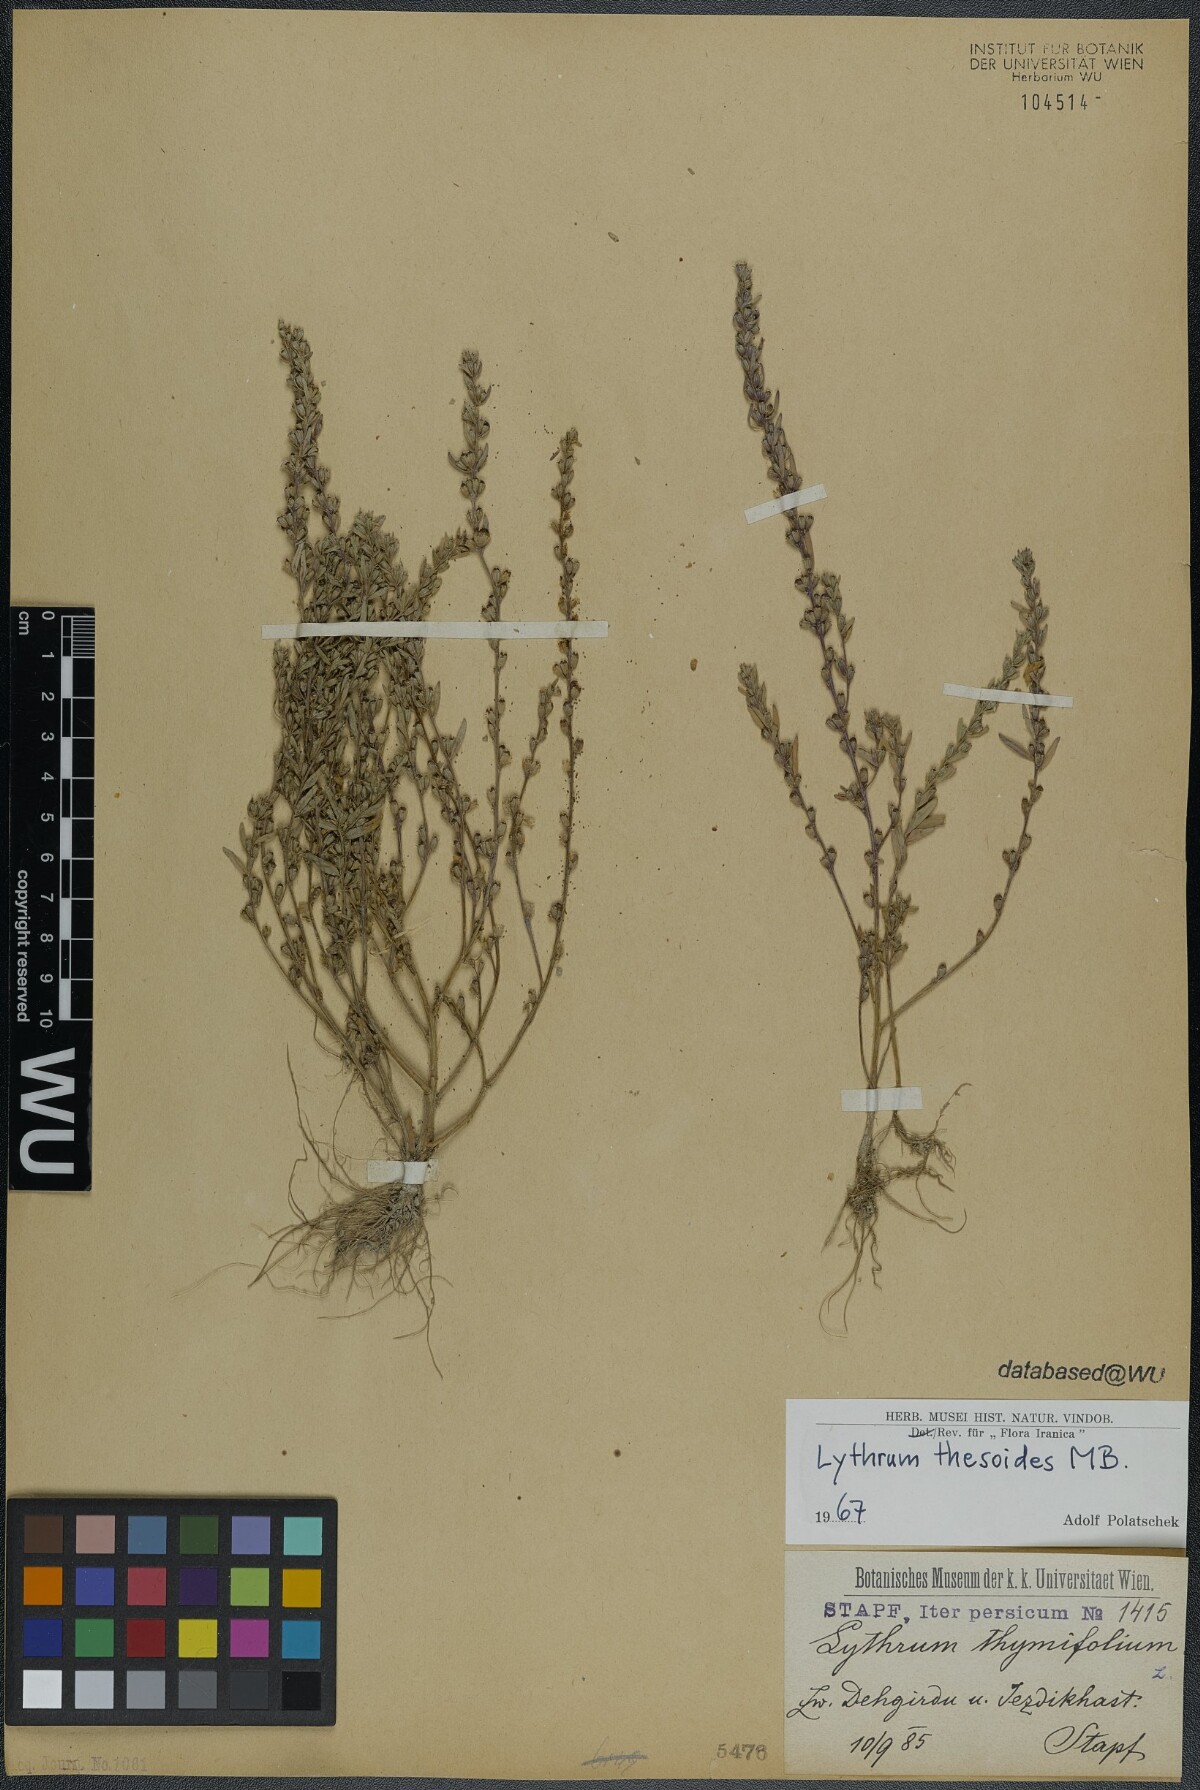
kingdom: Plantae
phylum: Tracheophyta
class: Magnoliopsida
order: Myrtales
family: Lythraceae
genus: Lythrum
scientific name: Lythrum thesioides
